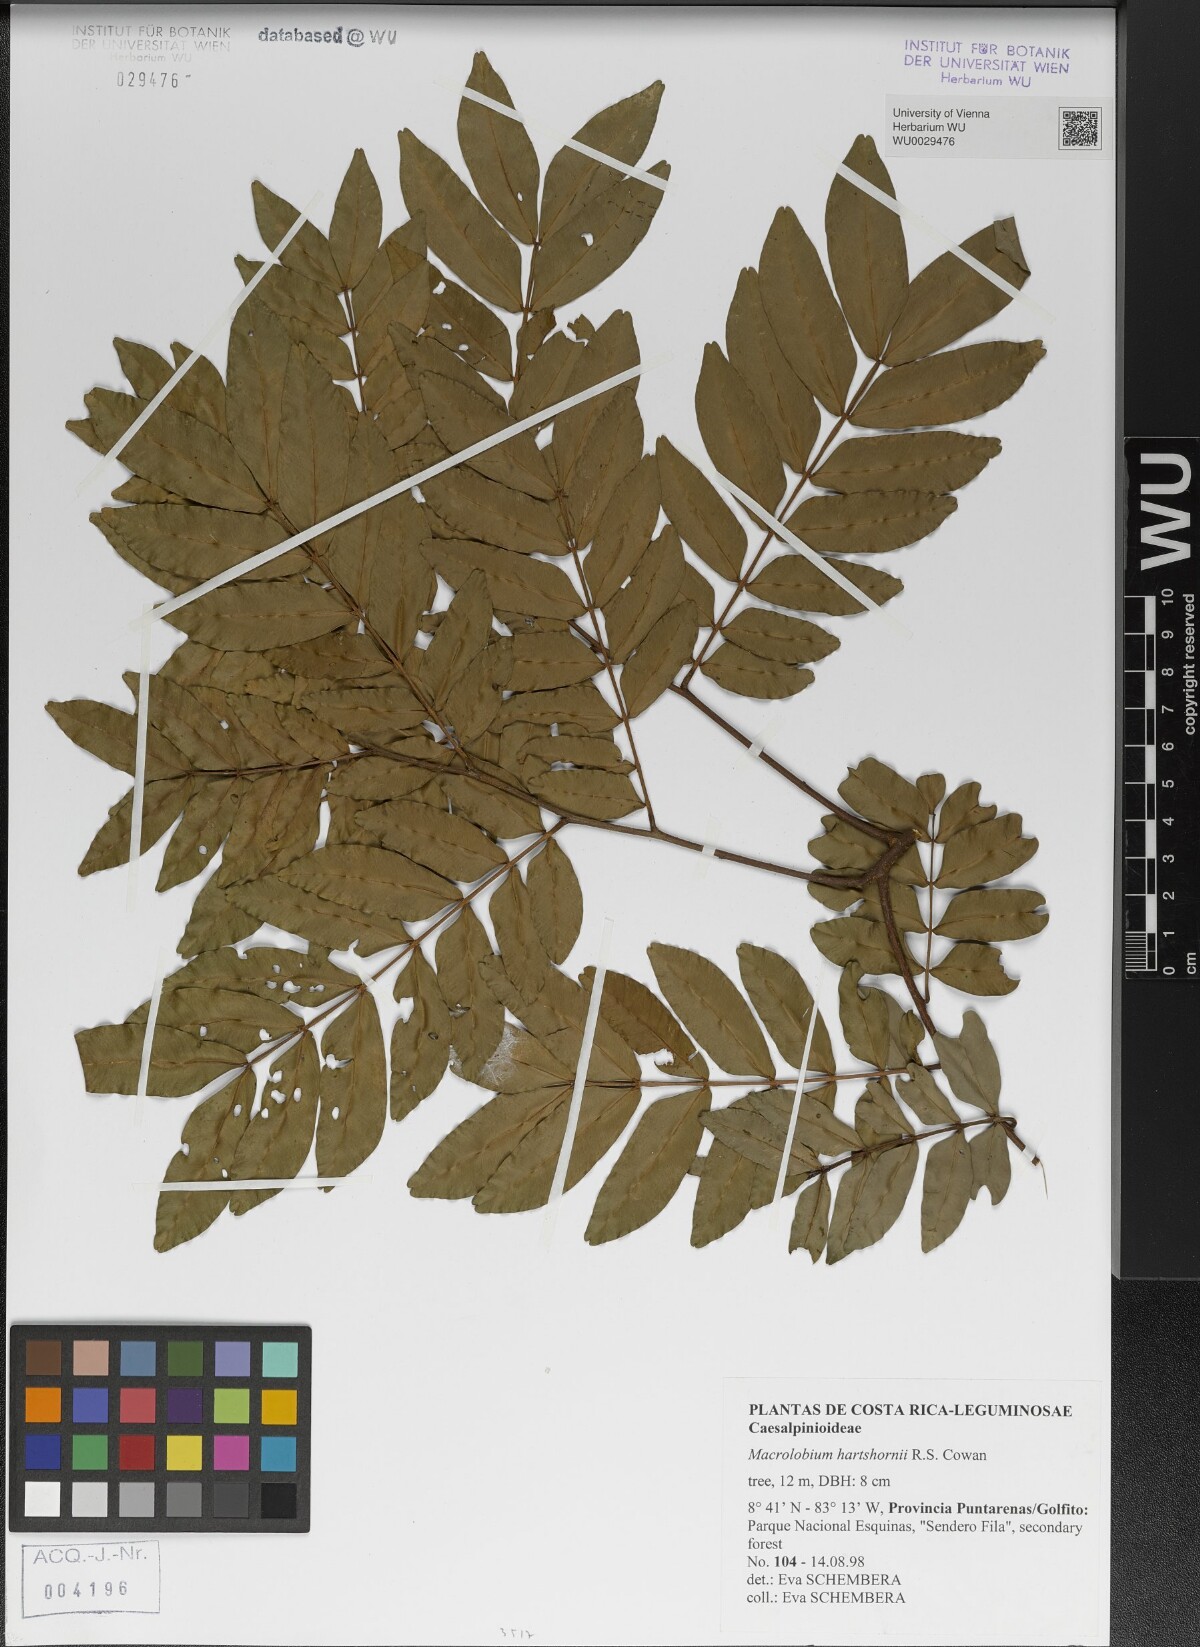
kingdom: Plantae
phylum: Tracheophyta
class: Magnoliopsida
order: Fabales
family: Fabaceae
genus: Macrolobium
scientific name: Macrolobium hartshornii
